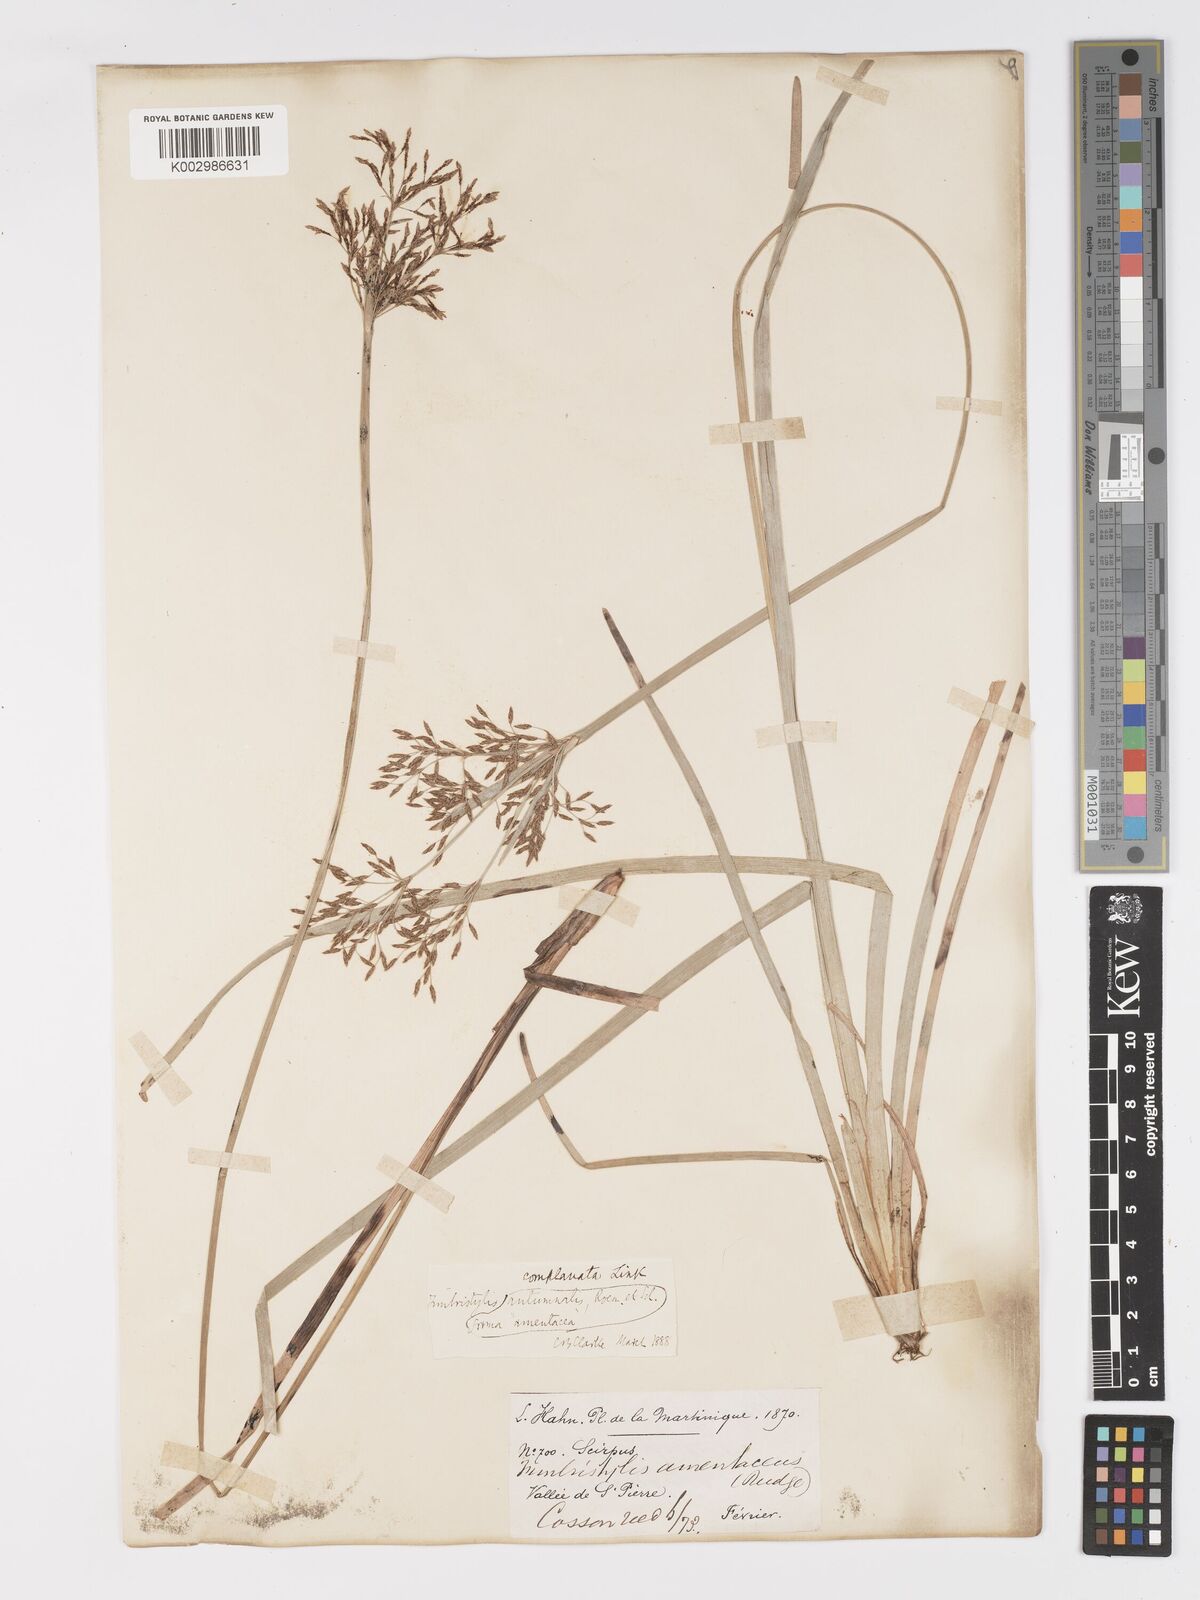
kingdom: Plantae
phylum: Tracheophyta
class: Liliopsida
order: Poales
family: Cyperaceae
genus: Fimbristylis
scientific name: Fimbristylis complanata
